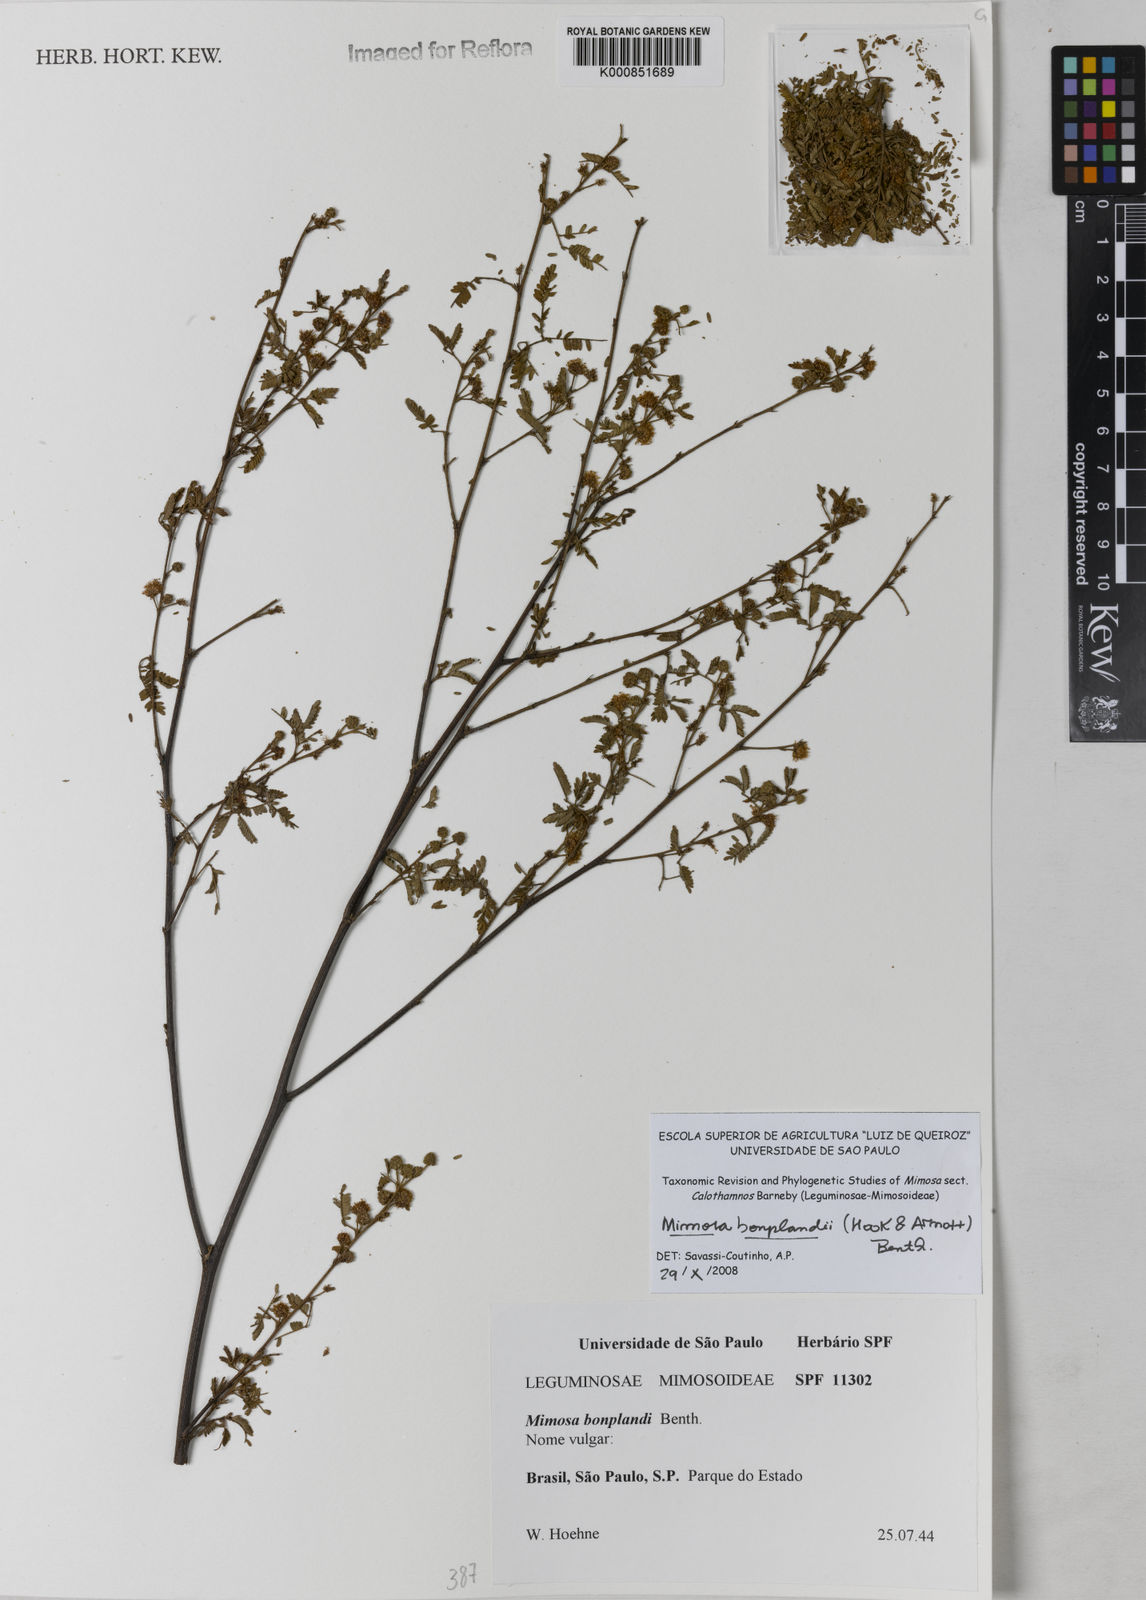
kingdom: Plantae
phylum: Tracheophyta
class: Magnoliopsida
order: Fabales
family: Fabaceae
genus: Mimosa
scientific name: Mimosa bonplandii
